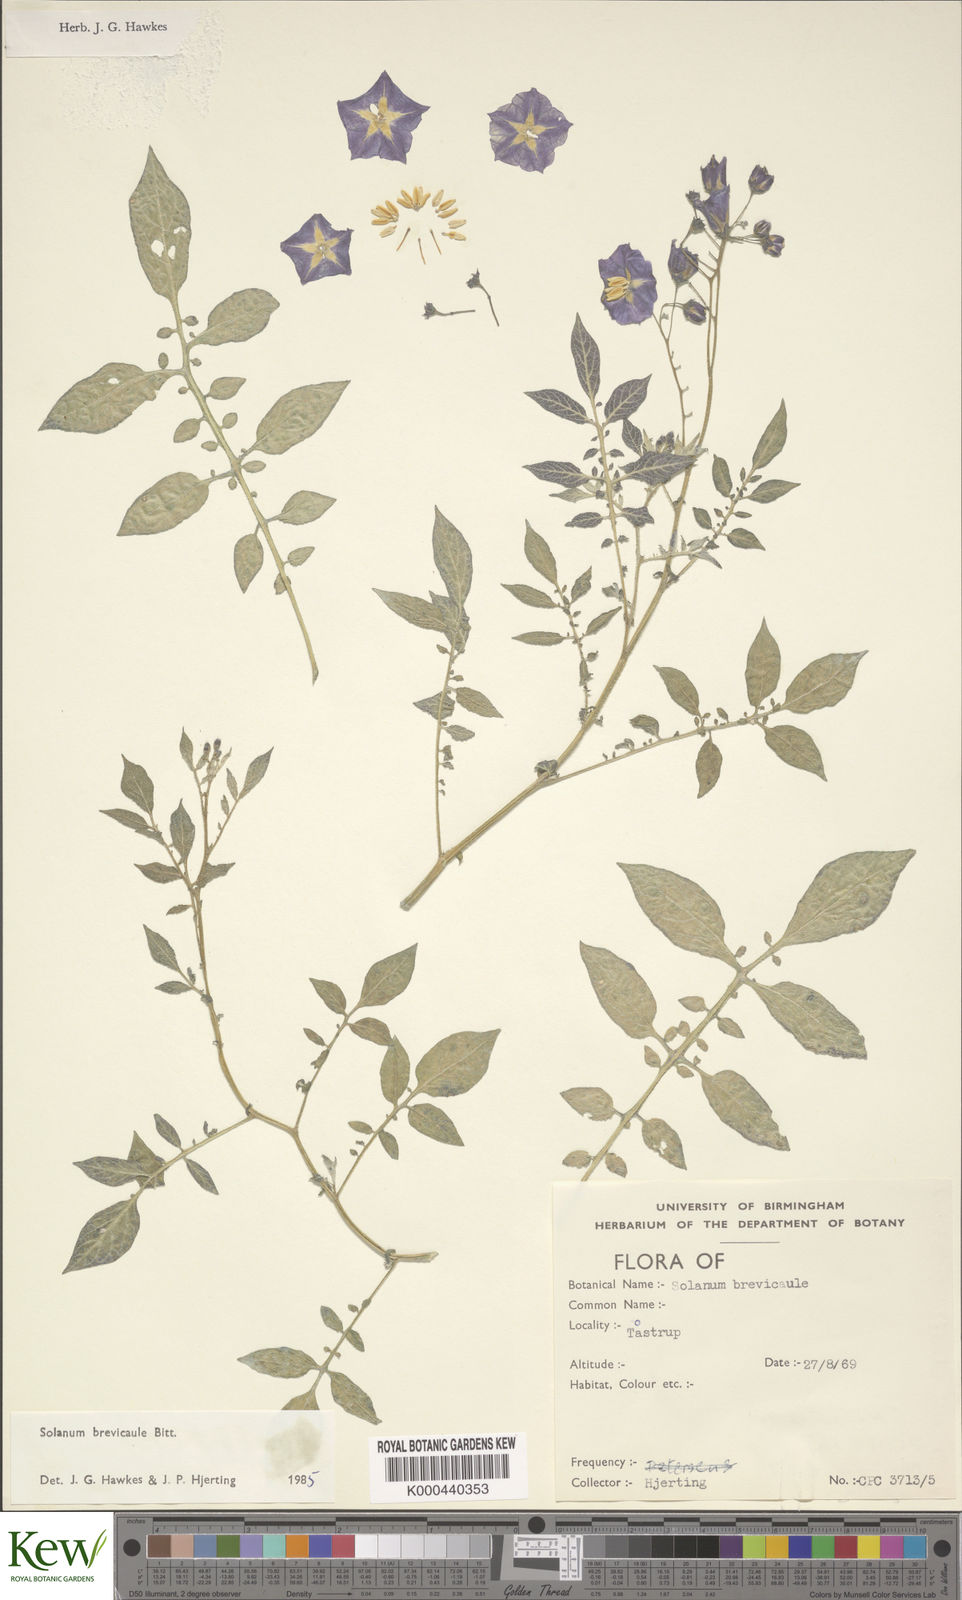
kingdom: Plantae
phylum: Tracheophyta
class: Magnoliopsida
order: Solanales
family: Solanaceae
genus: Solanum
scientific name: Solanum brevicaule
